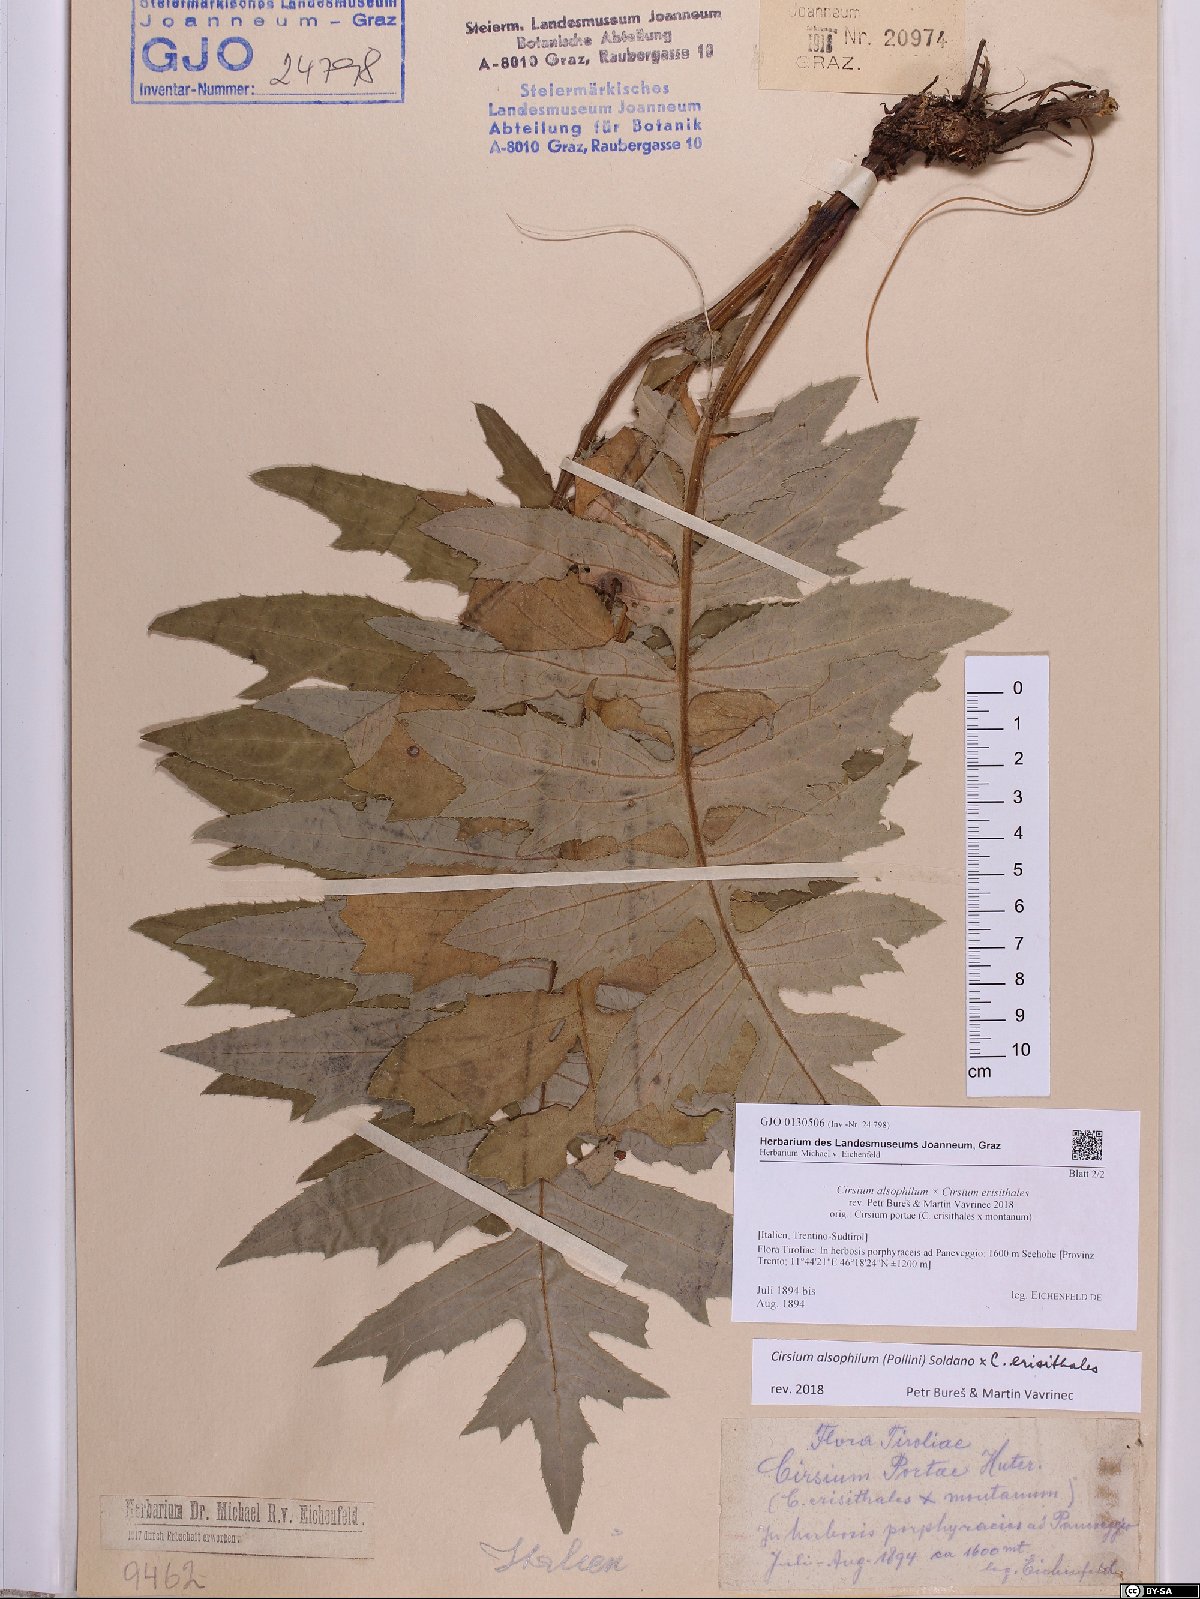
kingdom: Plantae
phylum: Tracheophyta
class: Magnoliopsida
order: Asterales
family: Asteraceae
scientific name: Asteraceae
